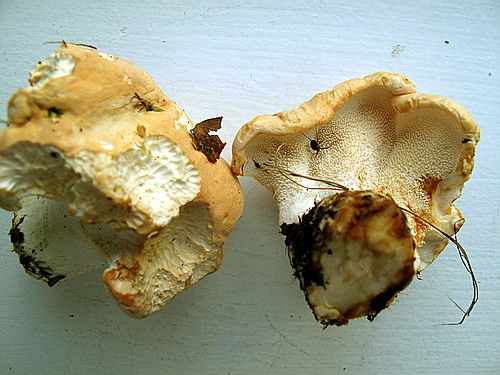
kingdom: Fungi
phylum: Basidiomycota
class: Agaricomycetes
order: Cantharellales
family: Hydnaceae
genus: Hydnum
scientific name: Hydnum repandum
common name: almindelig pigsvamp
